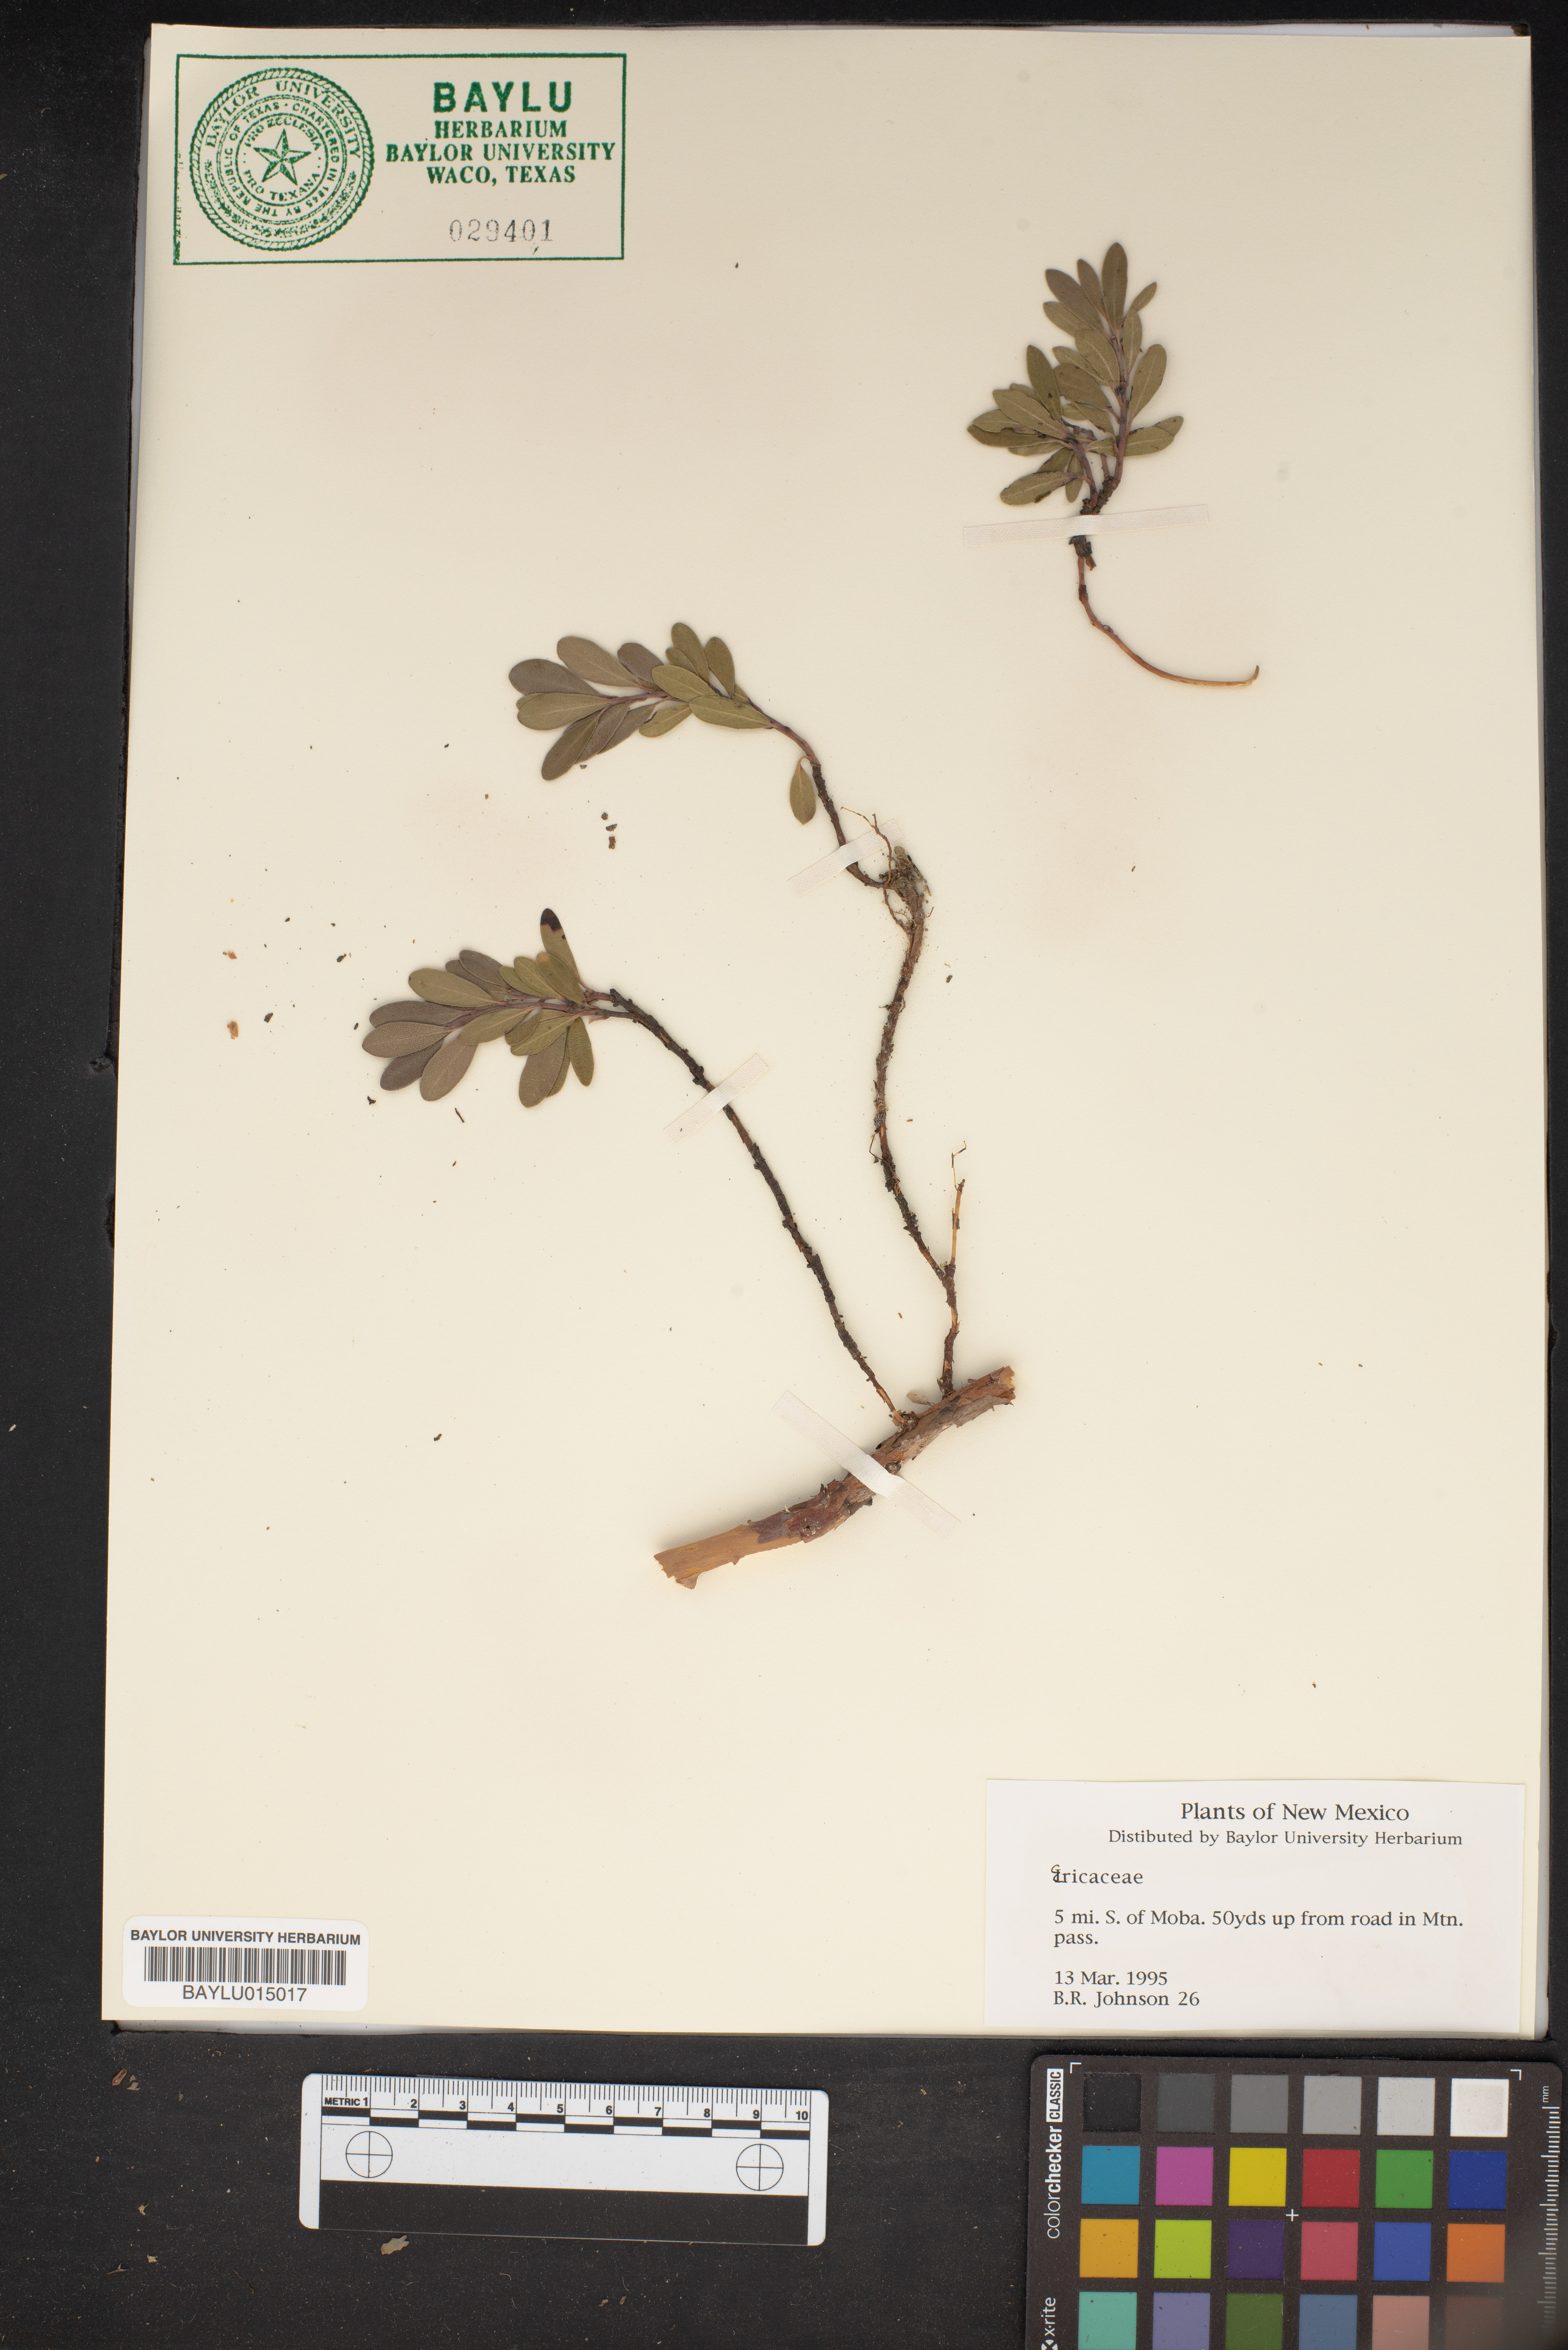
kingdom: Plantae
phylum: Tracheophyta
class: Magnoliopsida
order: Ericales
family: Ericaceae
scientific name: Ericaceae
